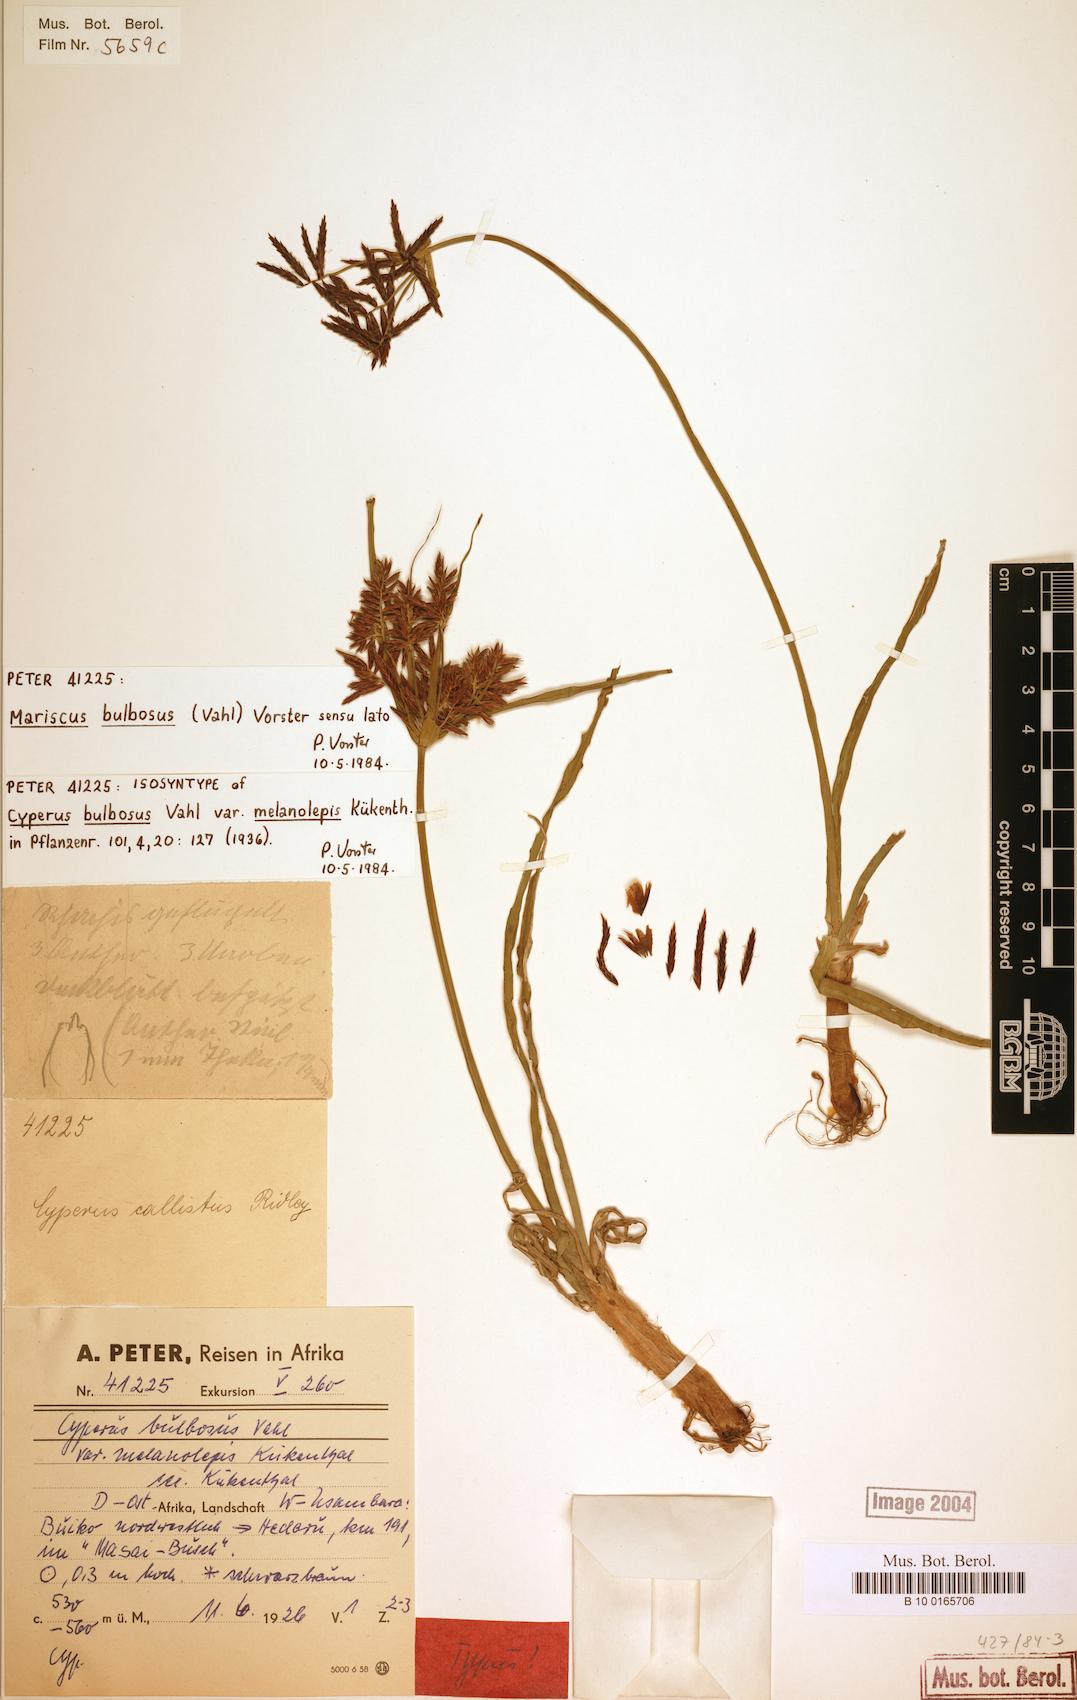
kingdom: Plantae
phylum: Tracheophyta
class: Liliopsida
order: Poales
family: Cyperaceae
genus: Cyperus
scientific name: Cyperus bulbosus
